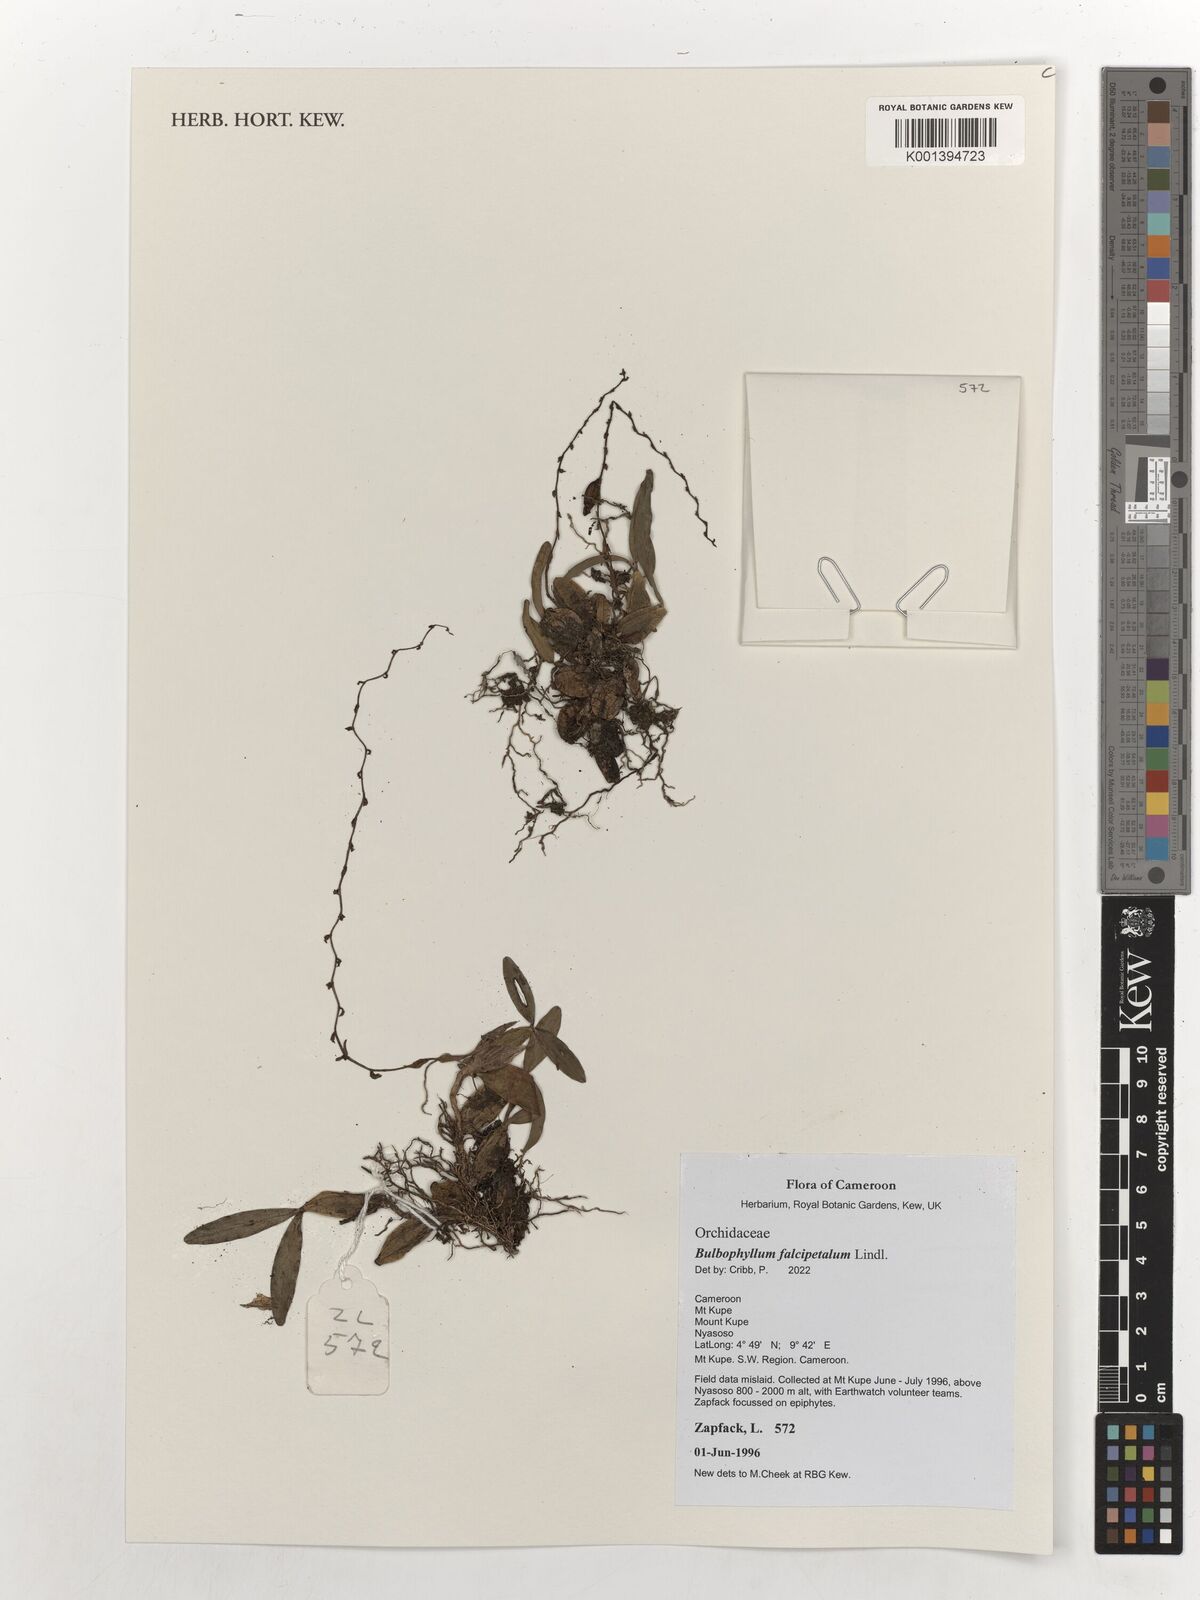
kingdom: Plantae
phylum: Tracheophyta
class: Liliopsida
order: Asparagales
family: Orchidaceae
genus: Bulbophyllum
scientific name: Bulbophyllum falcipetalum
